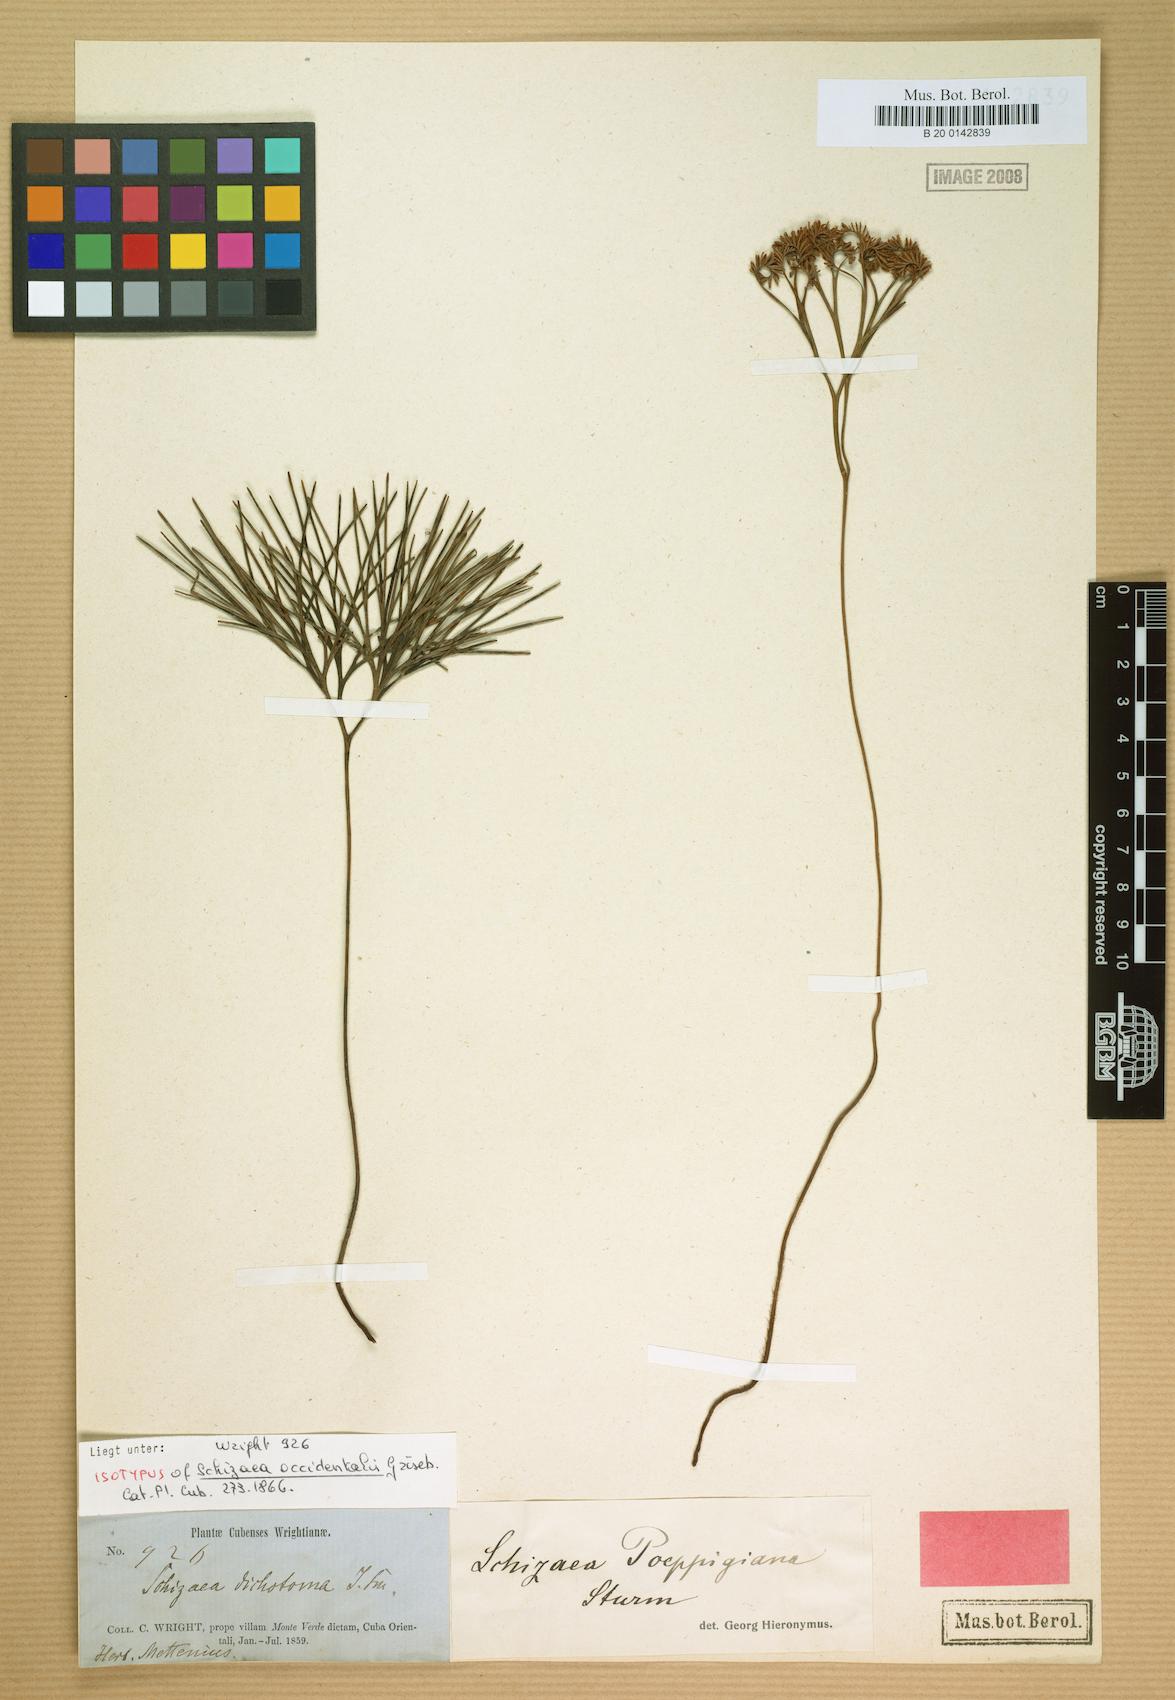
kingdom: Plantae
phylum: Tracheophyta
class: Polypodiopsida
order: Schizaeales
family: Schizaeaceae
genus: Schizaea
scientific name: Schizaea poeppigiana
